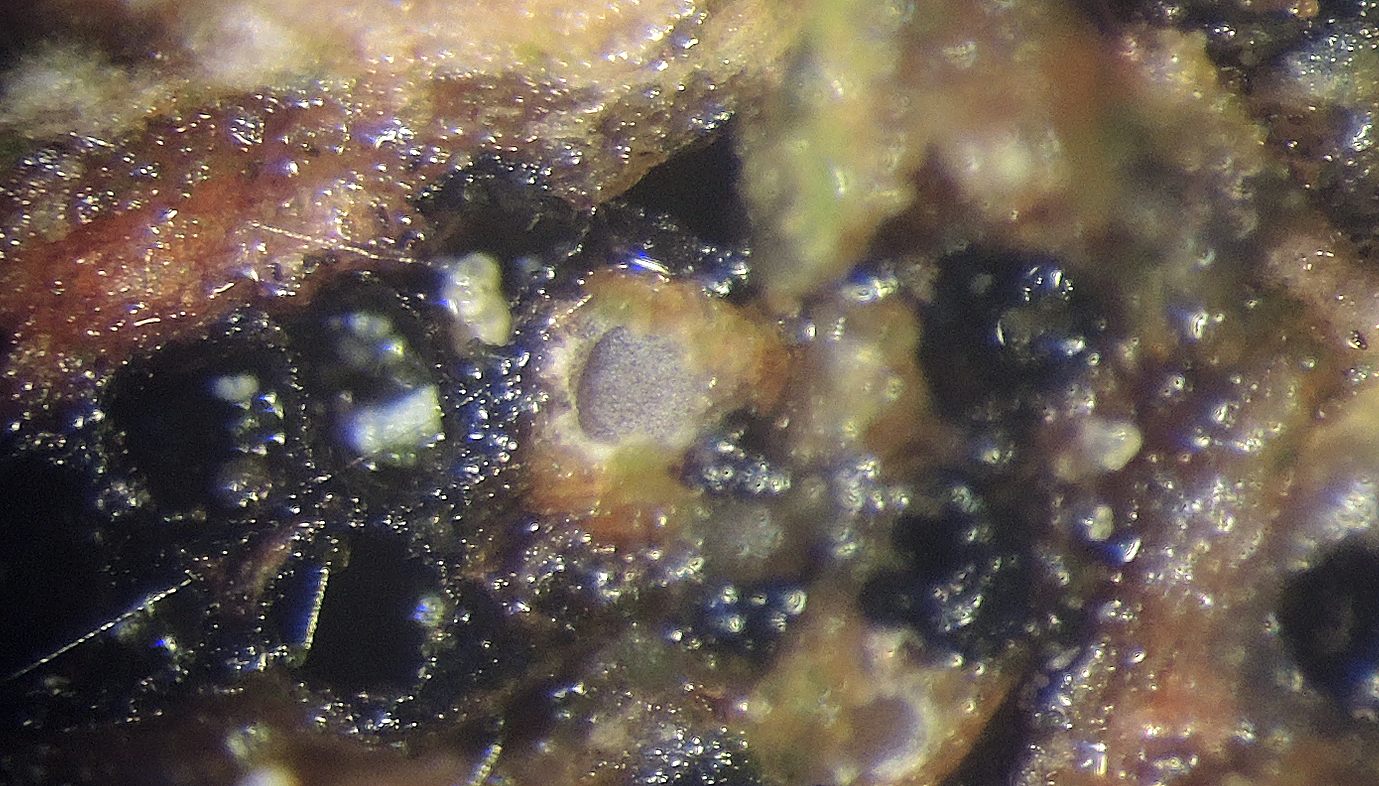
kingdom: Fungi
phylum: Ascomycota
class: Lecanoromycetes
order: Ostropales
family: Stictidaceae
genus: Karstenia
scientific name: Karstenia rhopaloides
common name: grårosa barkhul
